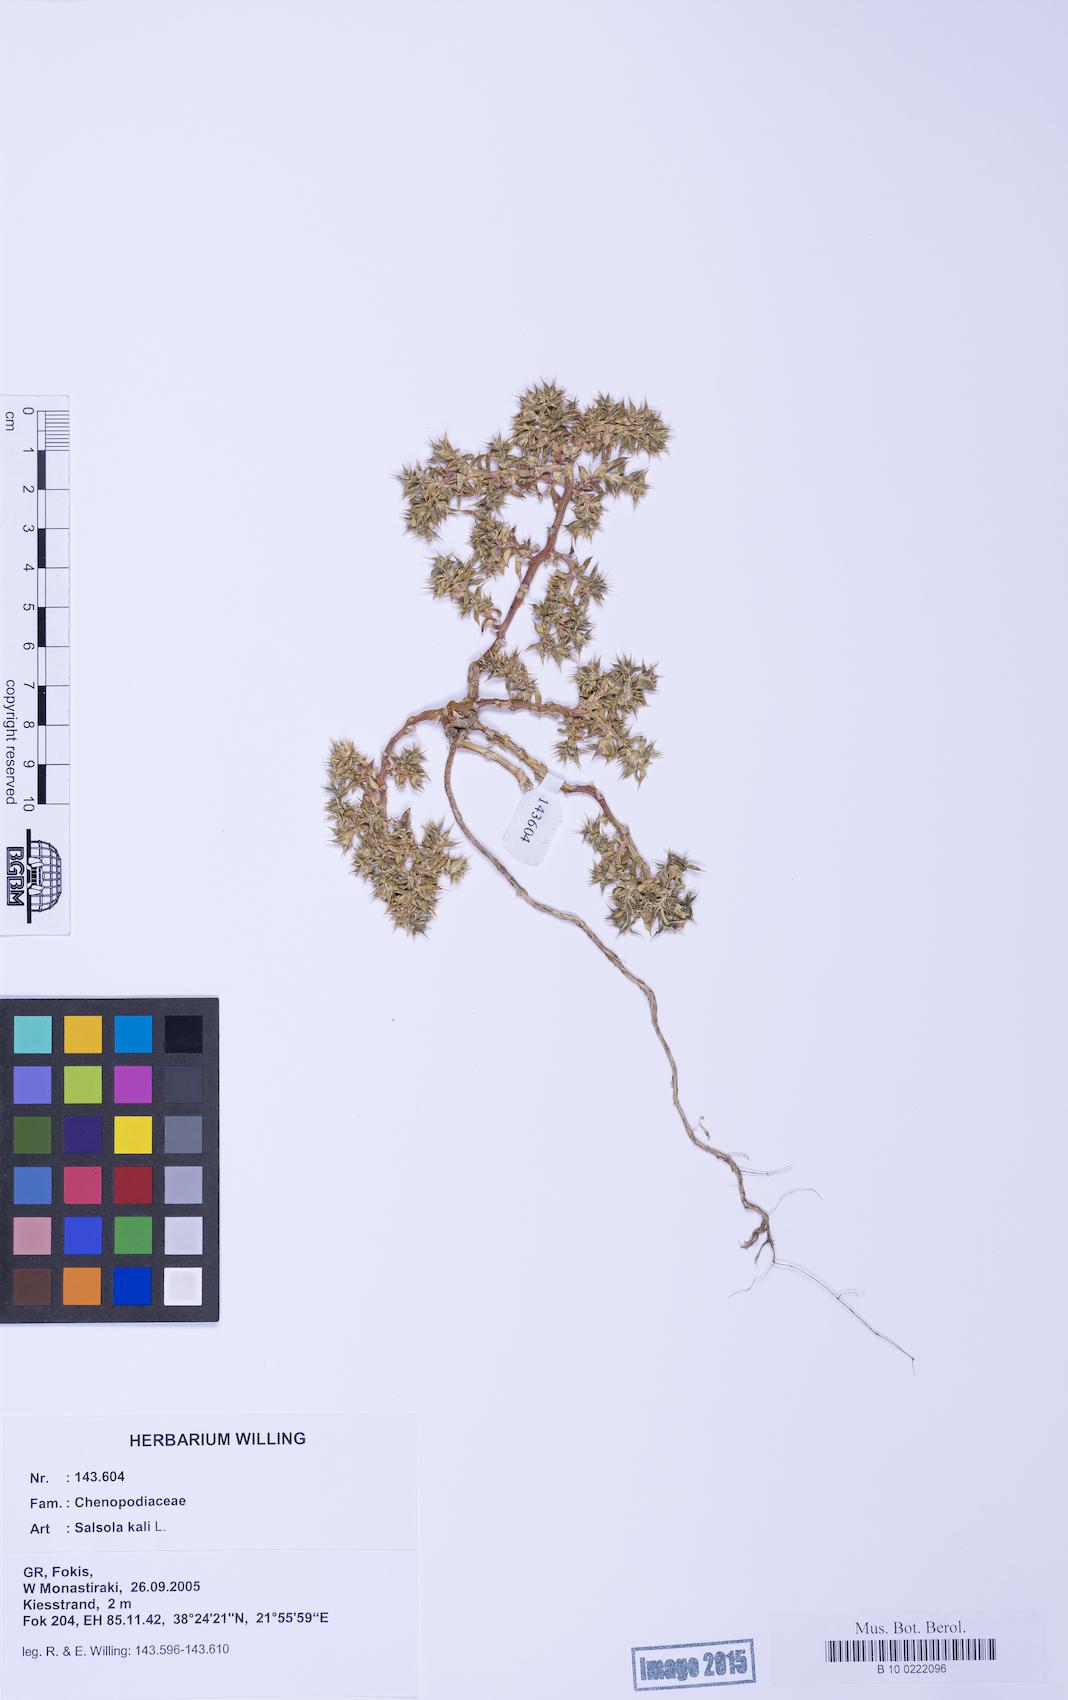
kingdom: Plantae
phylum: Tracheophyta
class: Magnoliopsida
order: Caryophyllales
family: Amaranthaceae
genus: Salsola
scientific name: Salsola kali
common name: Saltwort
